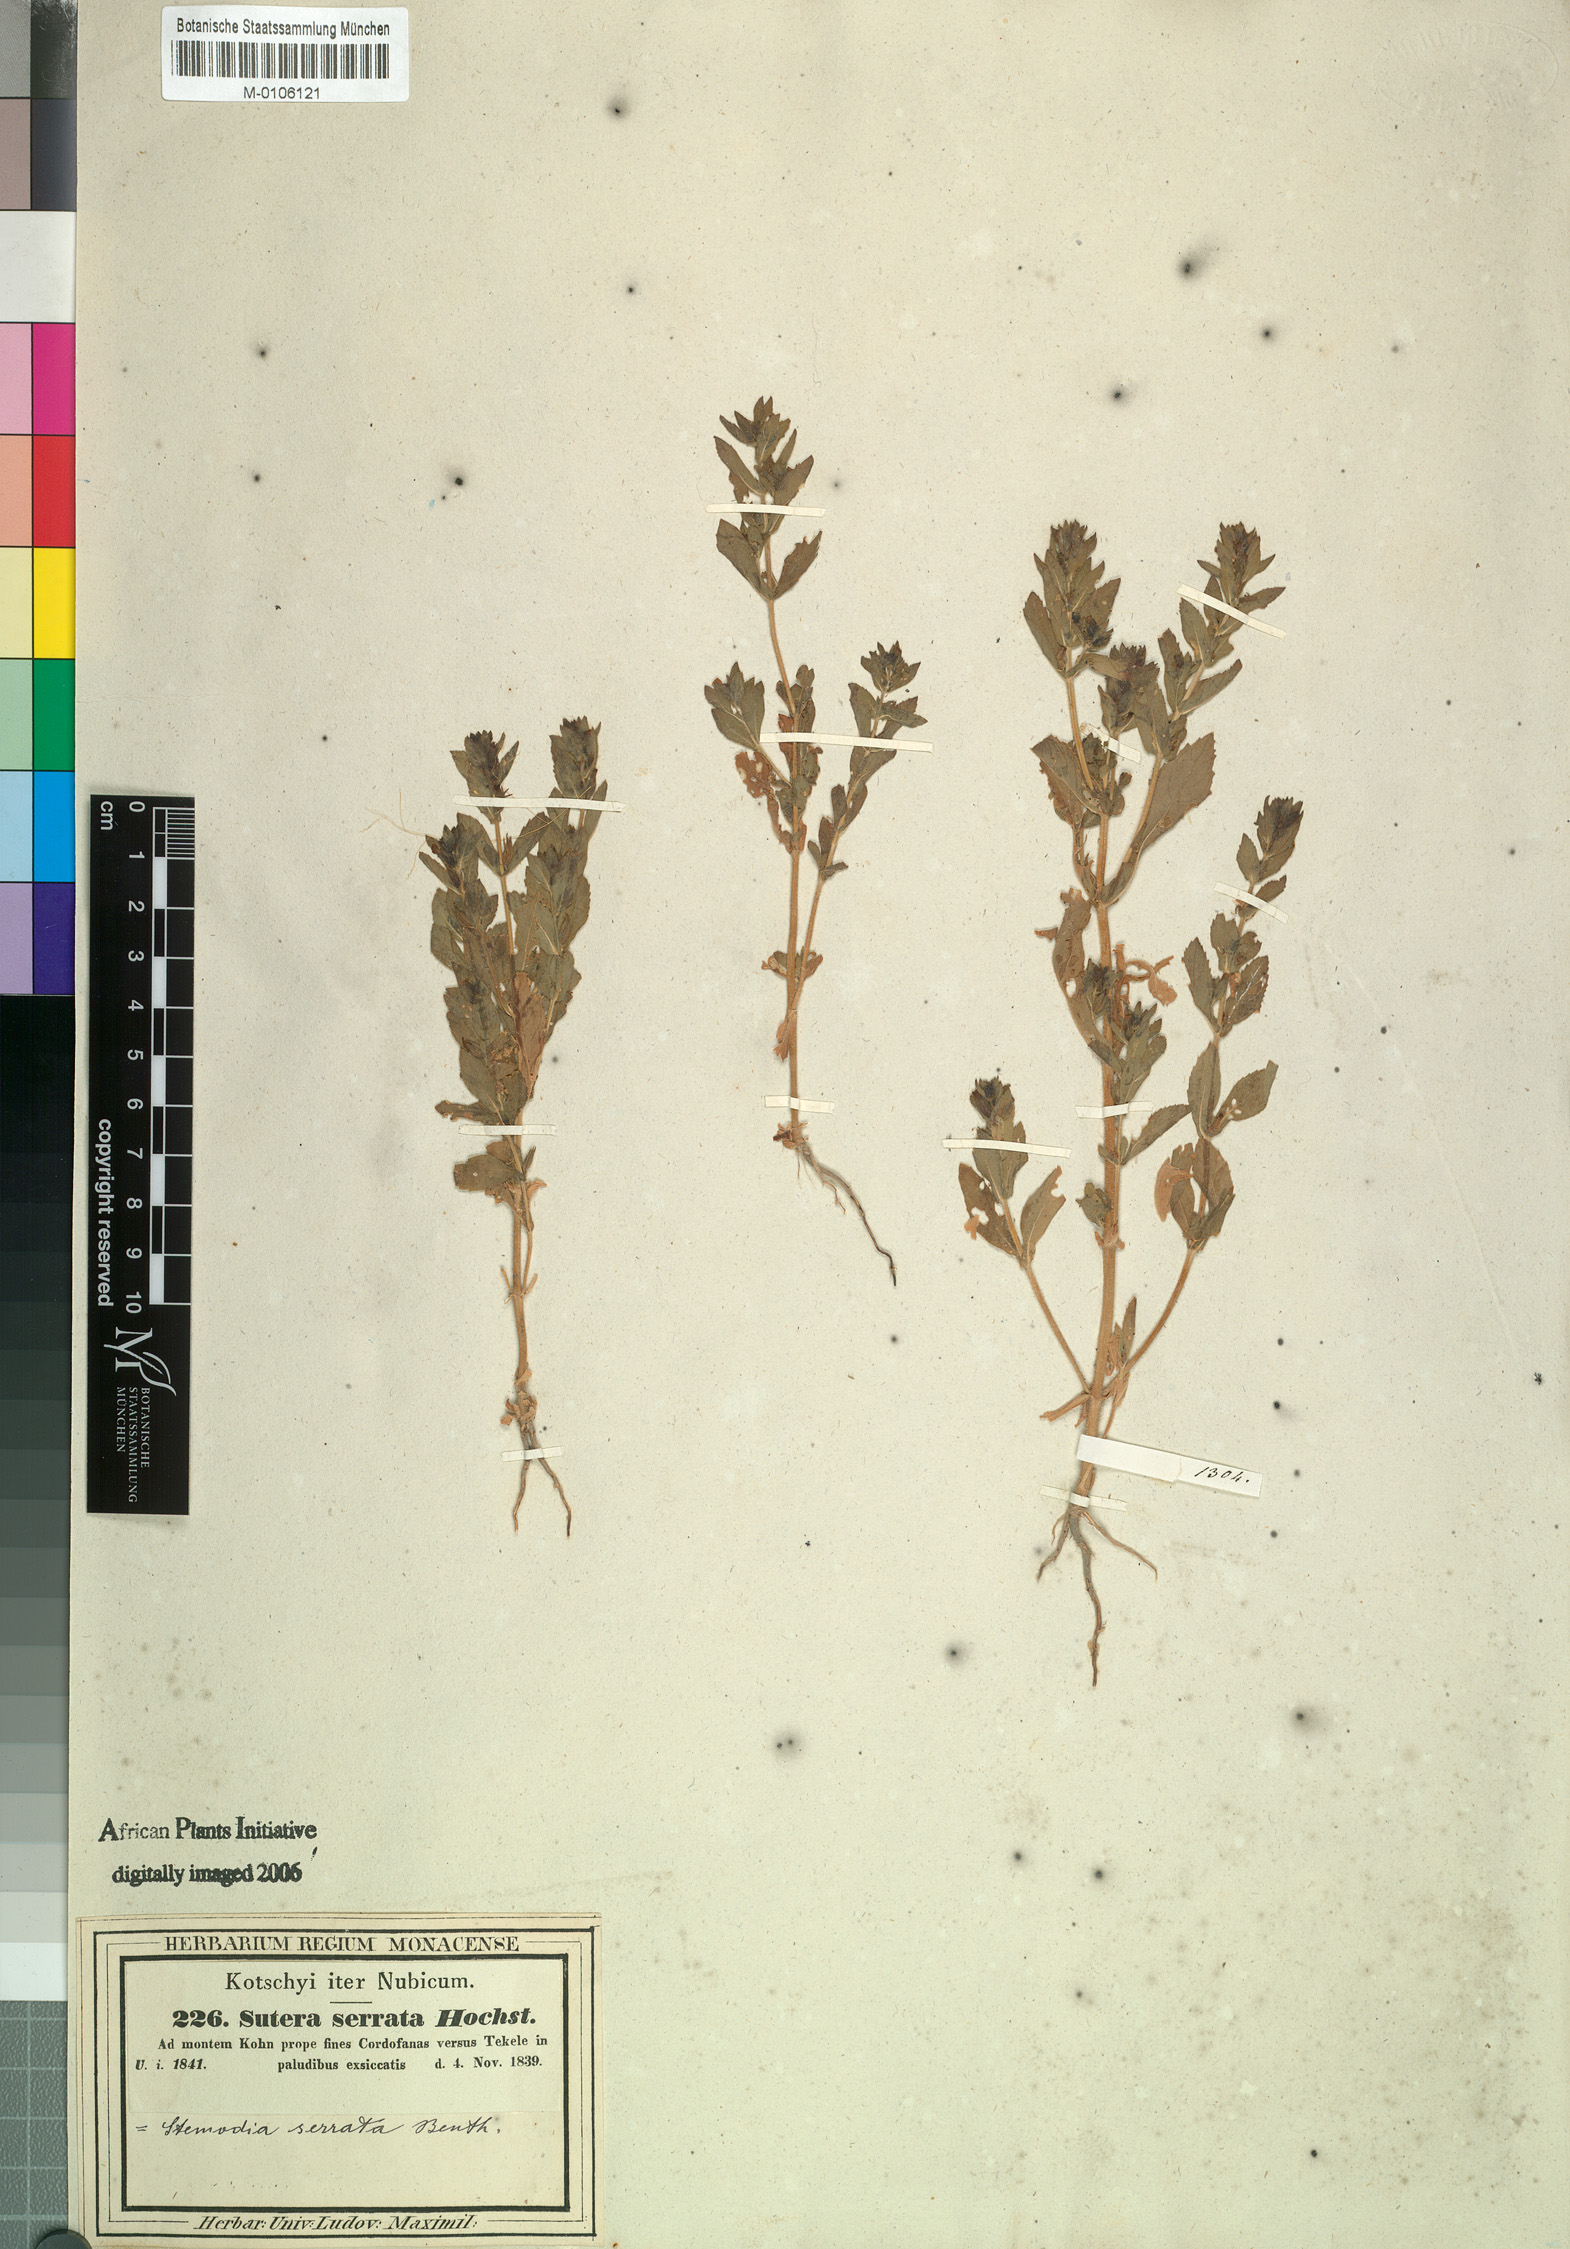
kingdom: Plantae
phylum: Tracheophyta
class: Magnoliopsida
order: Lamiales
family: Plantaginaceae
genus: Stemodia
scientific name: Stemodia serrata
